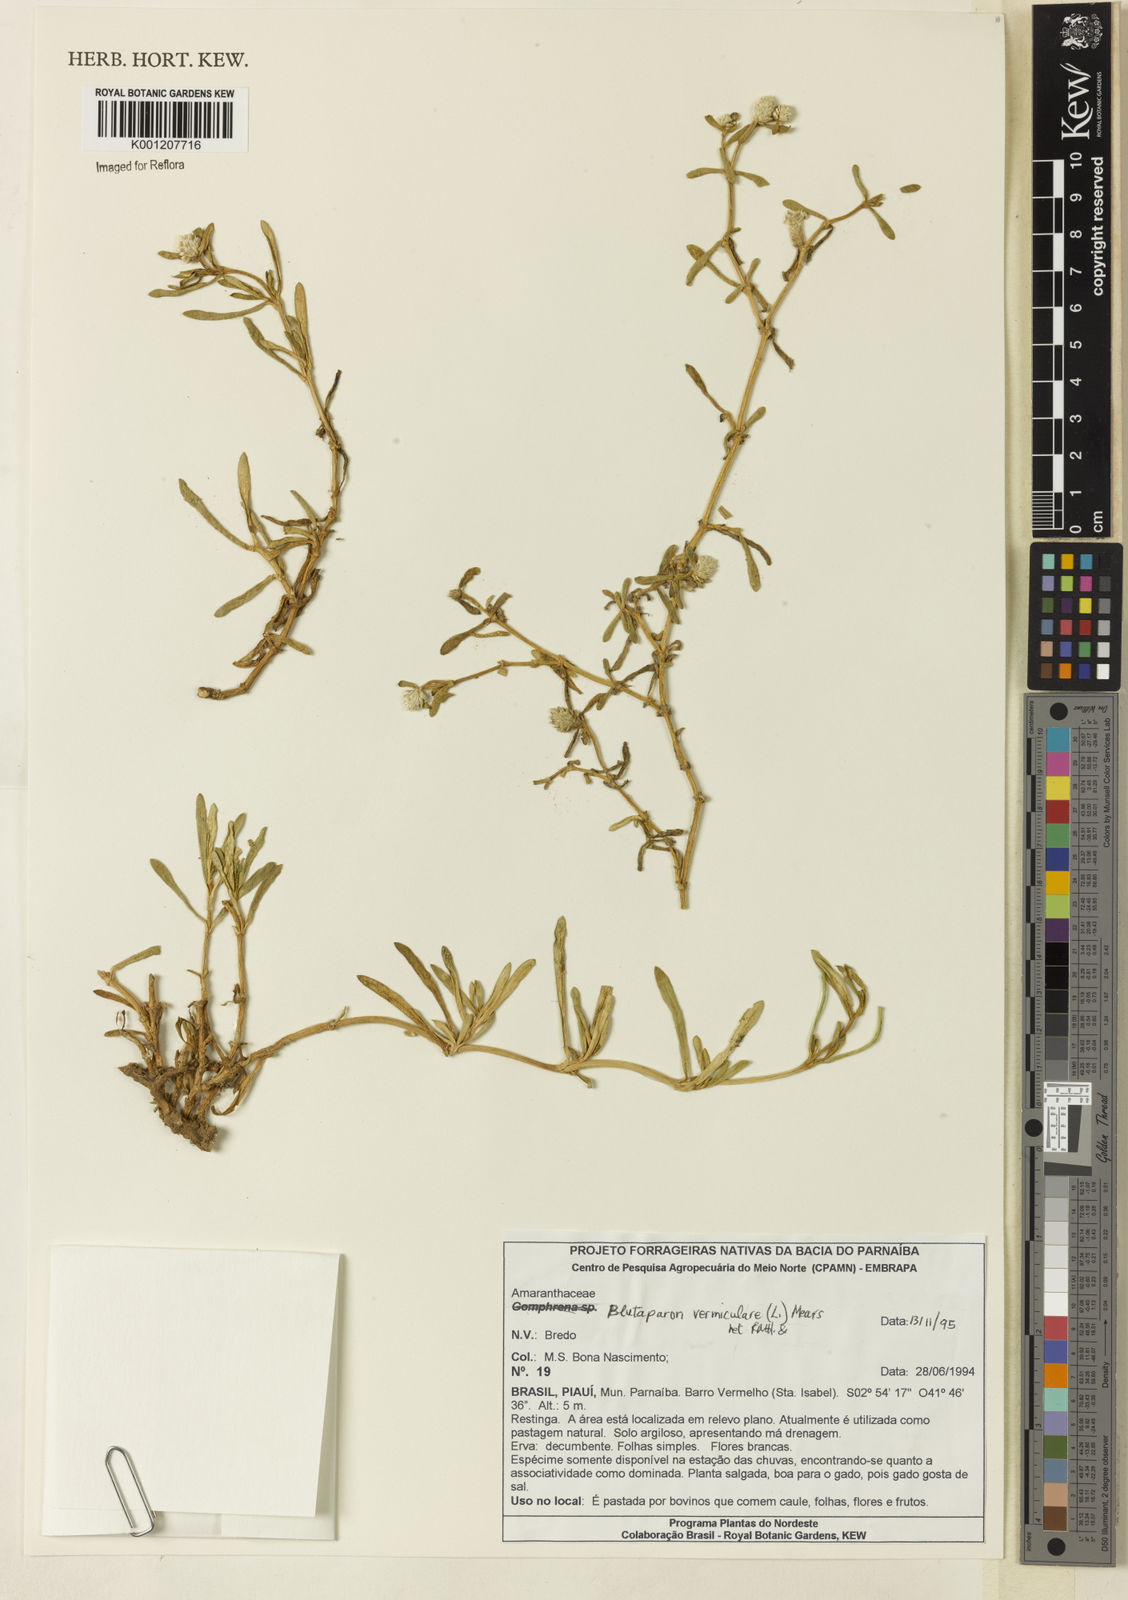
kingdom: Plantae
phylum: Tracheophyta
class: Magnoliopsida
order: Caryophyllales
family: Amaranthaceae
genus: Gomphrena
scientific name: Gomphrena vermicularis
